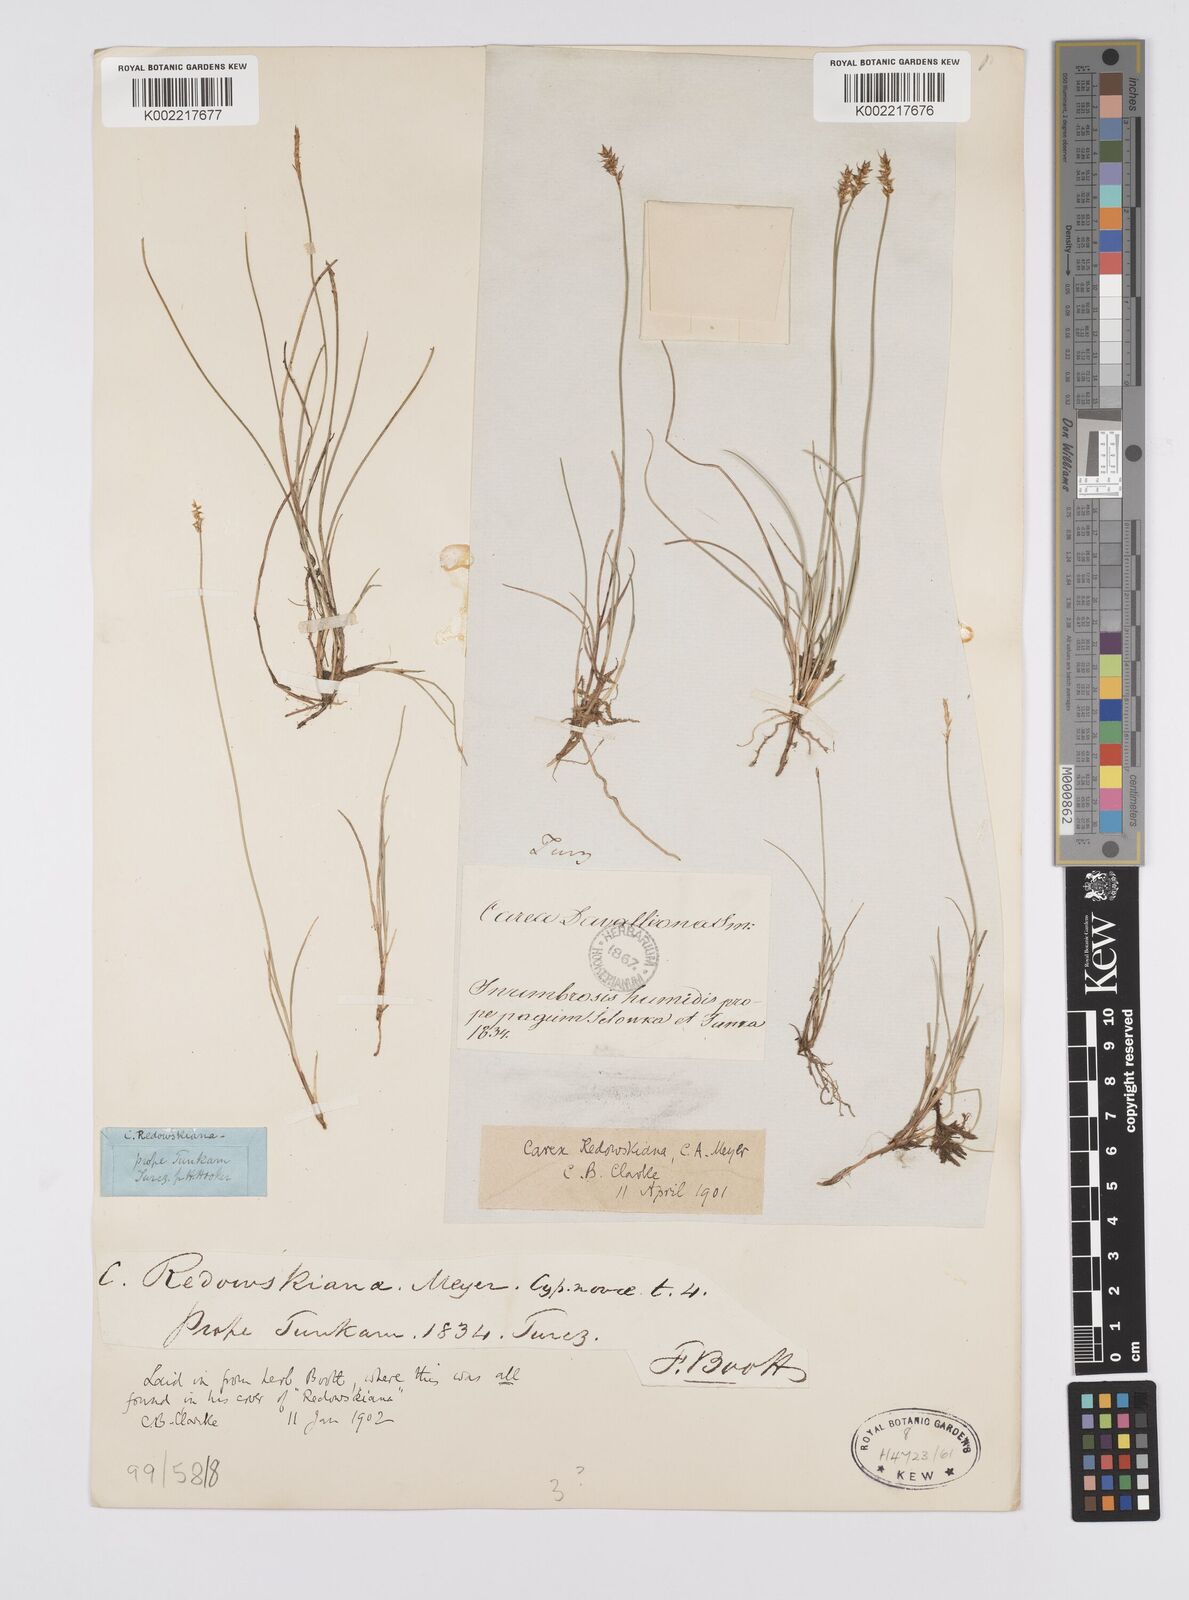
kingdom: Plantae
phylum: Tracheophyta
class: Liliopsida
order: Poales
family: Cyperaceae
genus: Carex
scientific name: Carex parallela
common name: Parallel sedge
